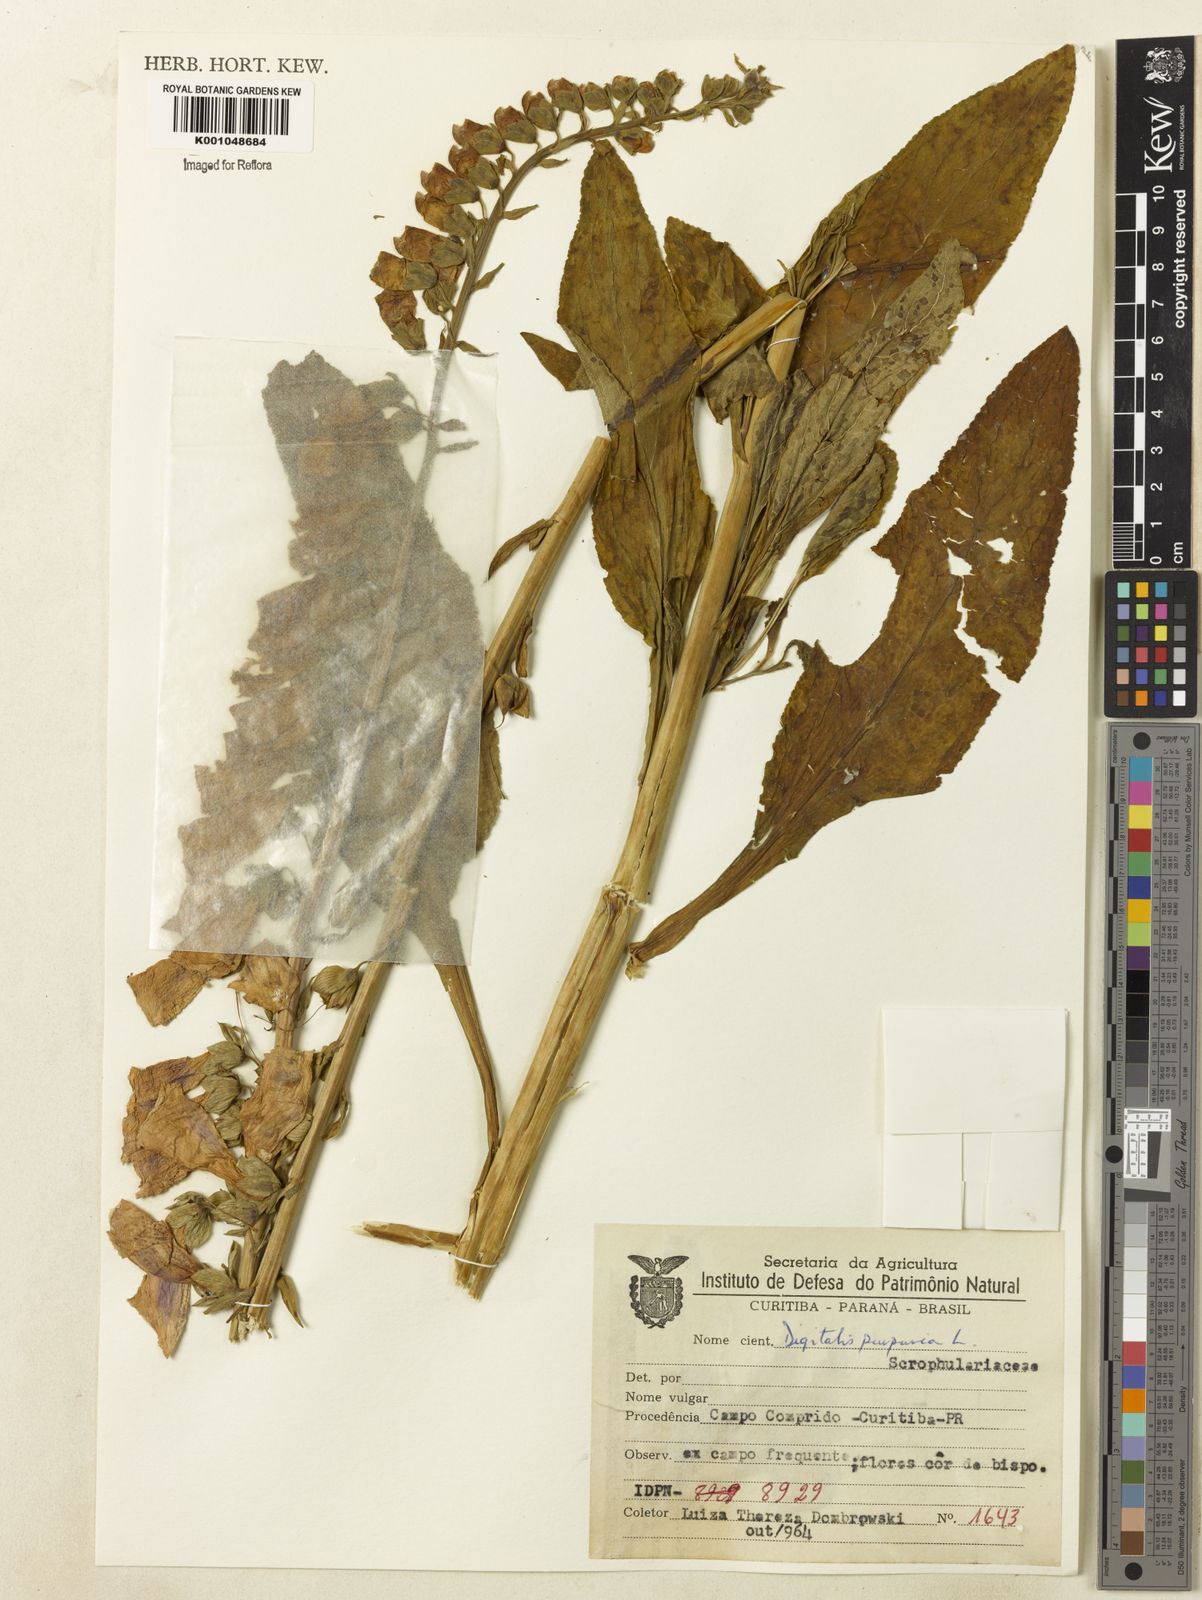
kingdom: Plantae
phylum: Tracheophyta
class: Magnoliopsida
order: Lamiales
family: Plantaginaceae
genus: Digitalis
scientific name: Digitalis purpurea
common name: Foxglove
